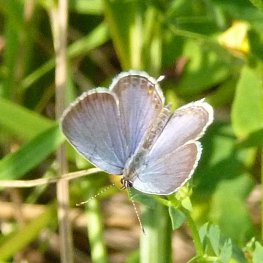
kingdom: Animalia
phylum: Arthropoda
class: Insecta
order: Lepidoptera
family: Lycaenidae
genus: Elkalyce
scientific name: Elkalyce comyntas
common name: Eastern Tailed-Blue
